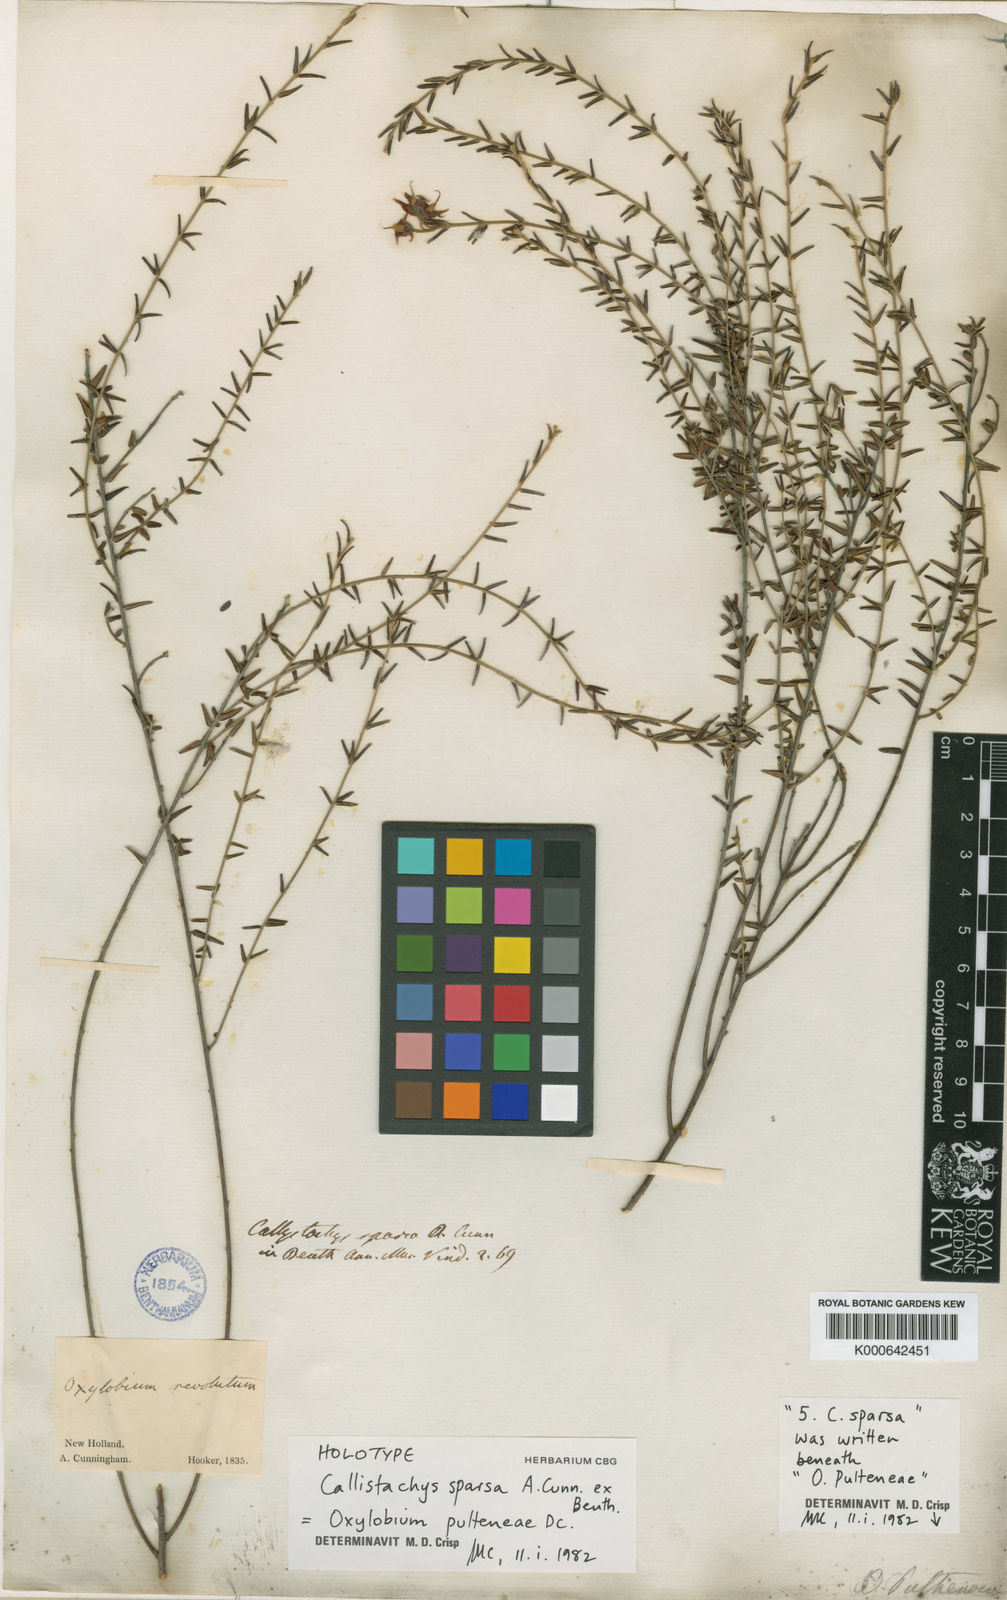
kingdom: Plantae
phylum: Tracheophyta
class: Magnoliopsida
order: Fabales
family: Fabaceae
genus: Oxylobium
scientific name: Oxylobium pulteneae
